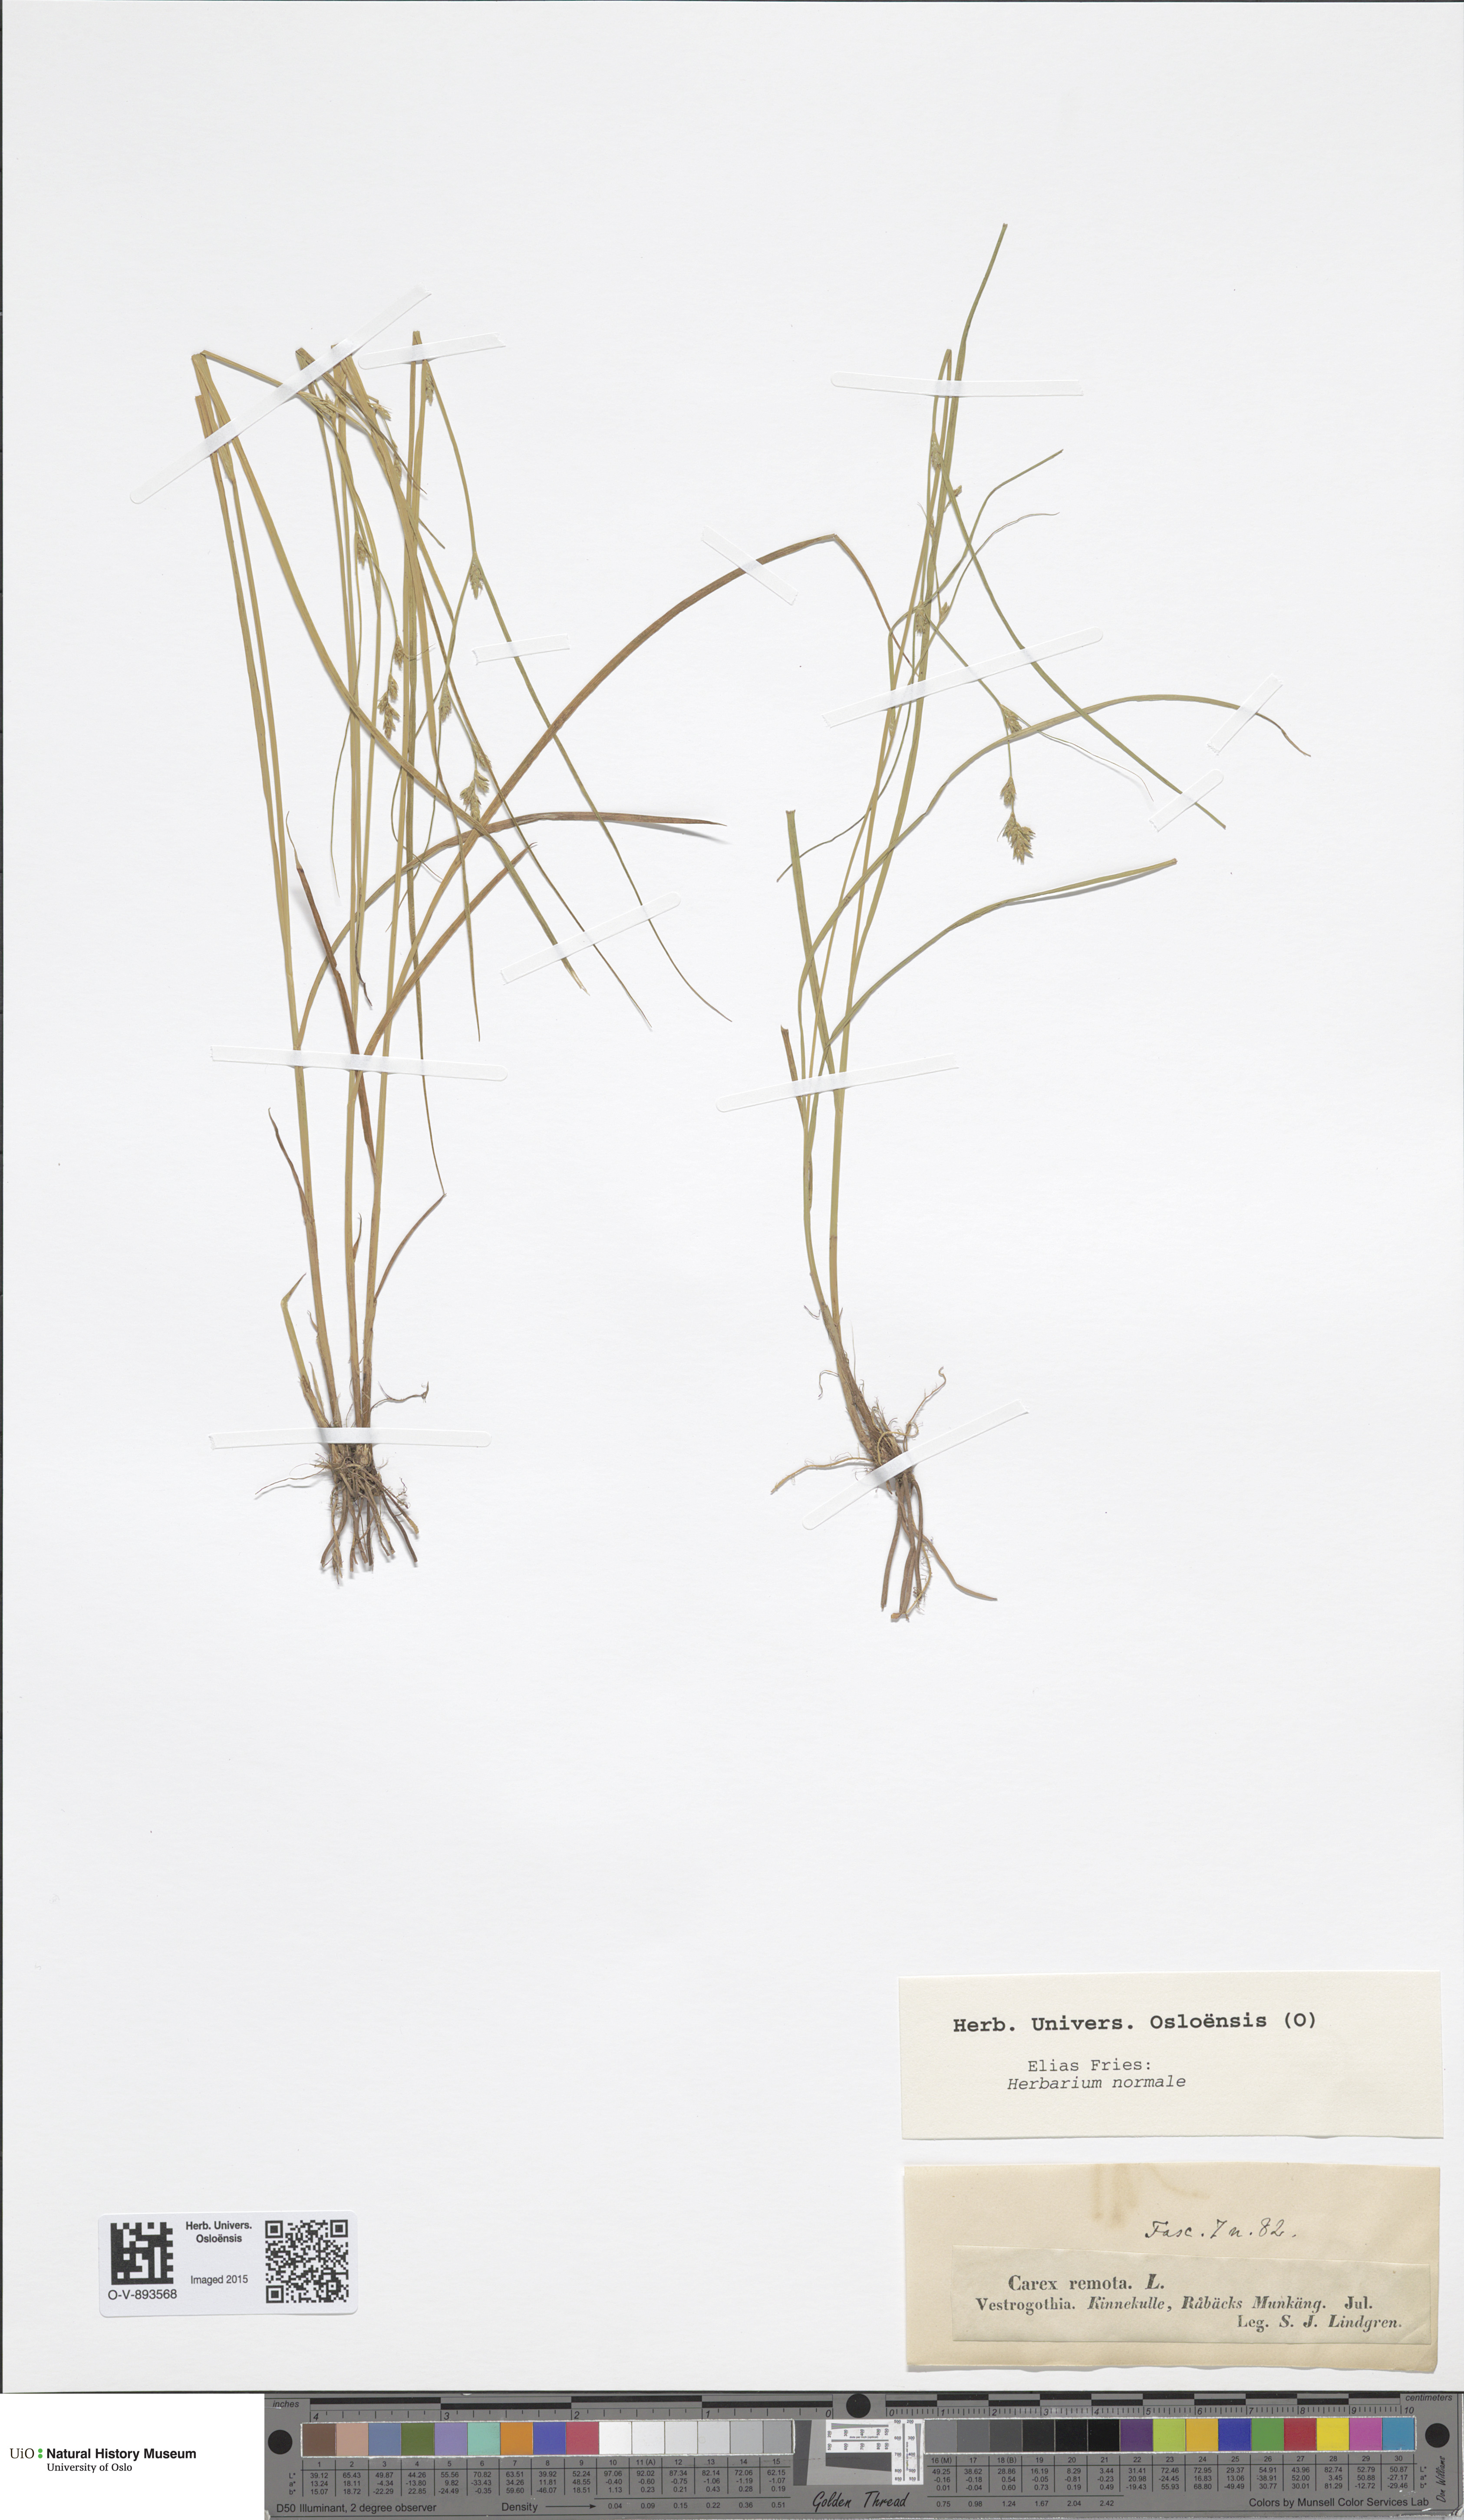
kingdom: Plantae
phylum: Tracheophyta
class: Liliopsida
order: Poales
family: Cyperaceae
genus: Carex
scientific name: Carex remota
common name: Remote sedge
